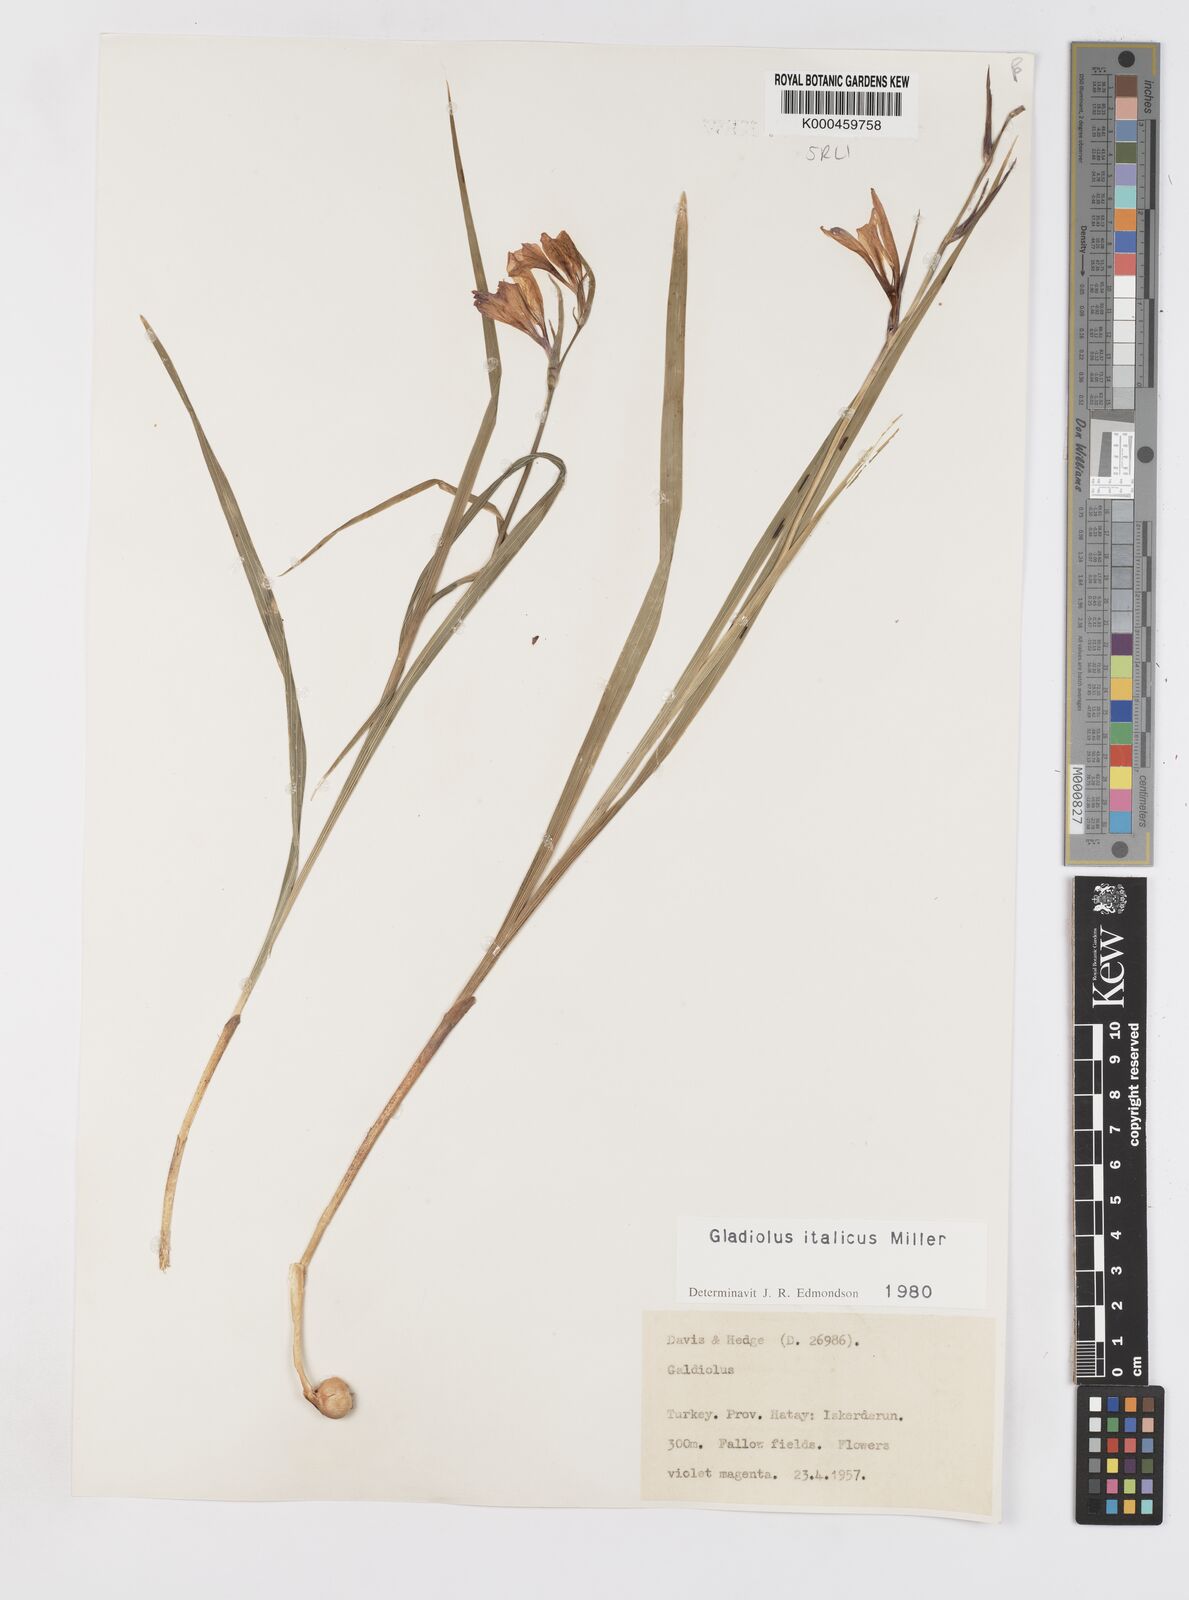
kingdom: Plantae
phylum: Tracheophyta
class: Liliopsida
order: Asparagales
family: Iridaceae
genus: Gladiolus
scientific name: Gladiolus italicus
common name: Field gladiolus
